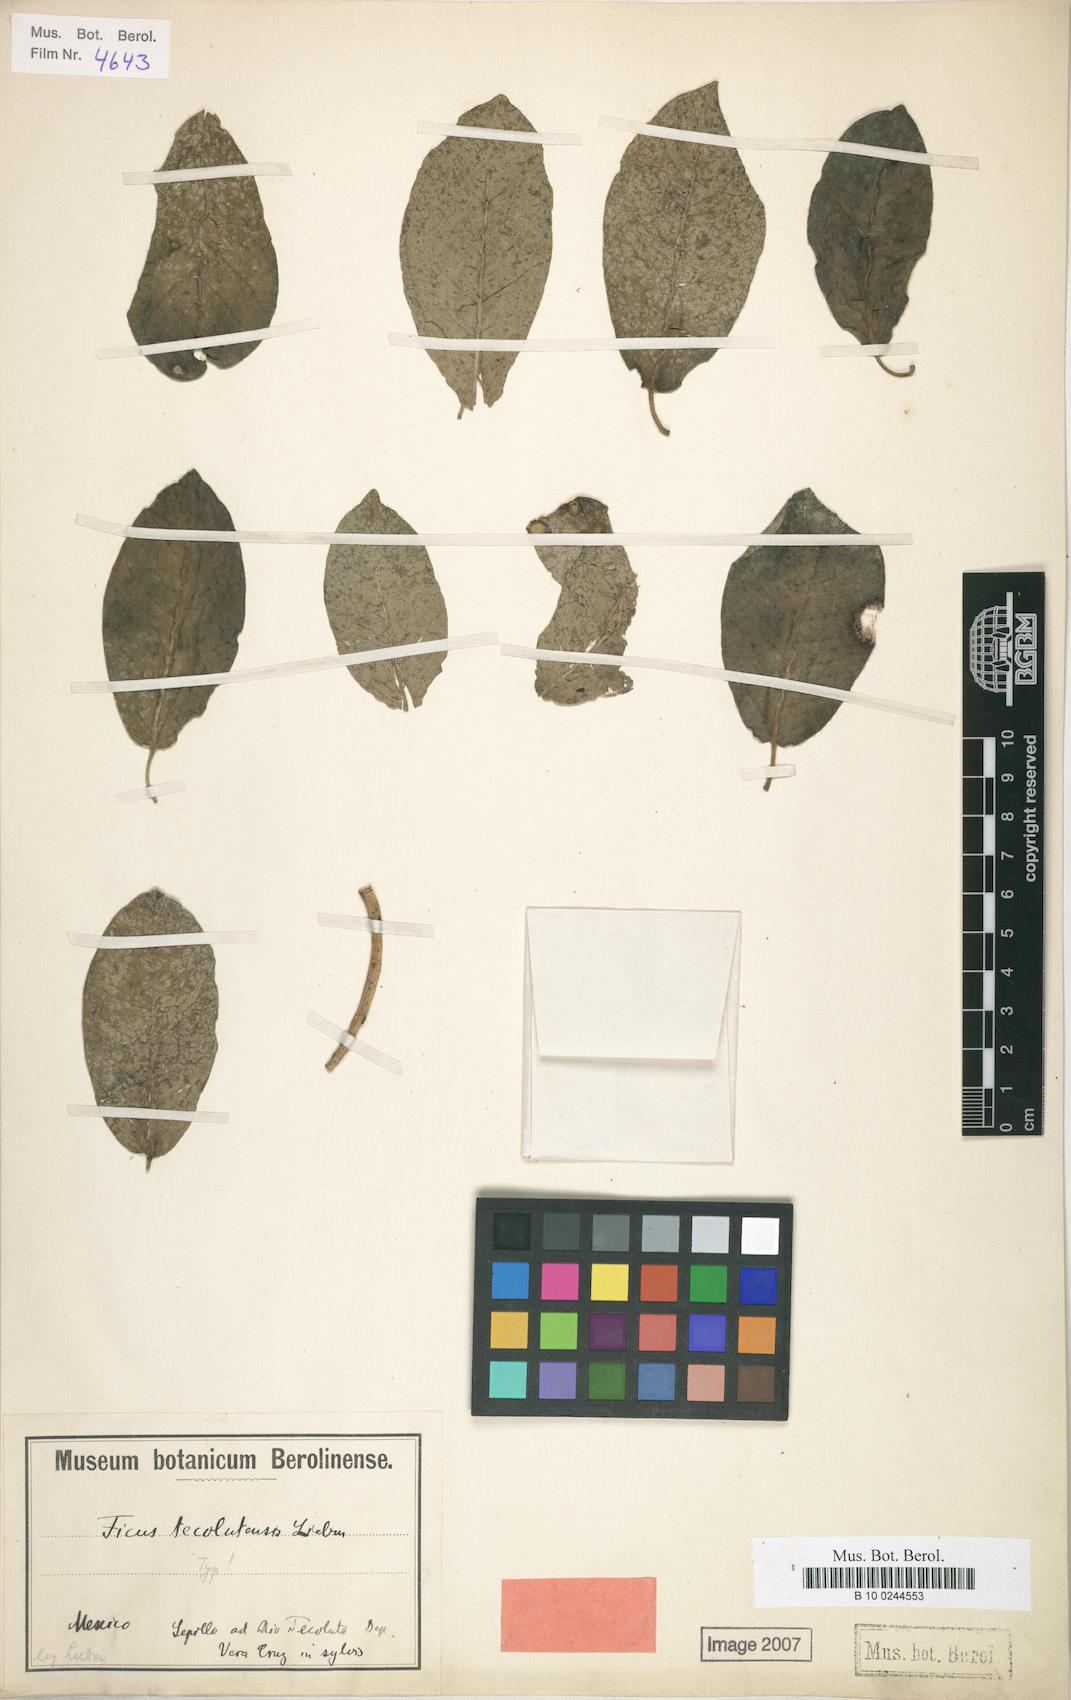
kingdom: Plantae
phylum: Tracheophyta
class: Magnoliopsida
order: Rosales
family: Moraceae
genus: Ficus
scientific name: Ficus tecolutensis
